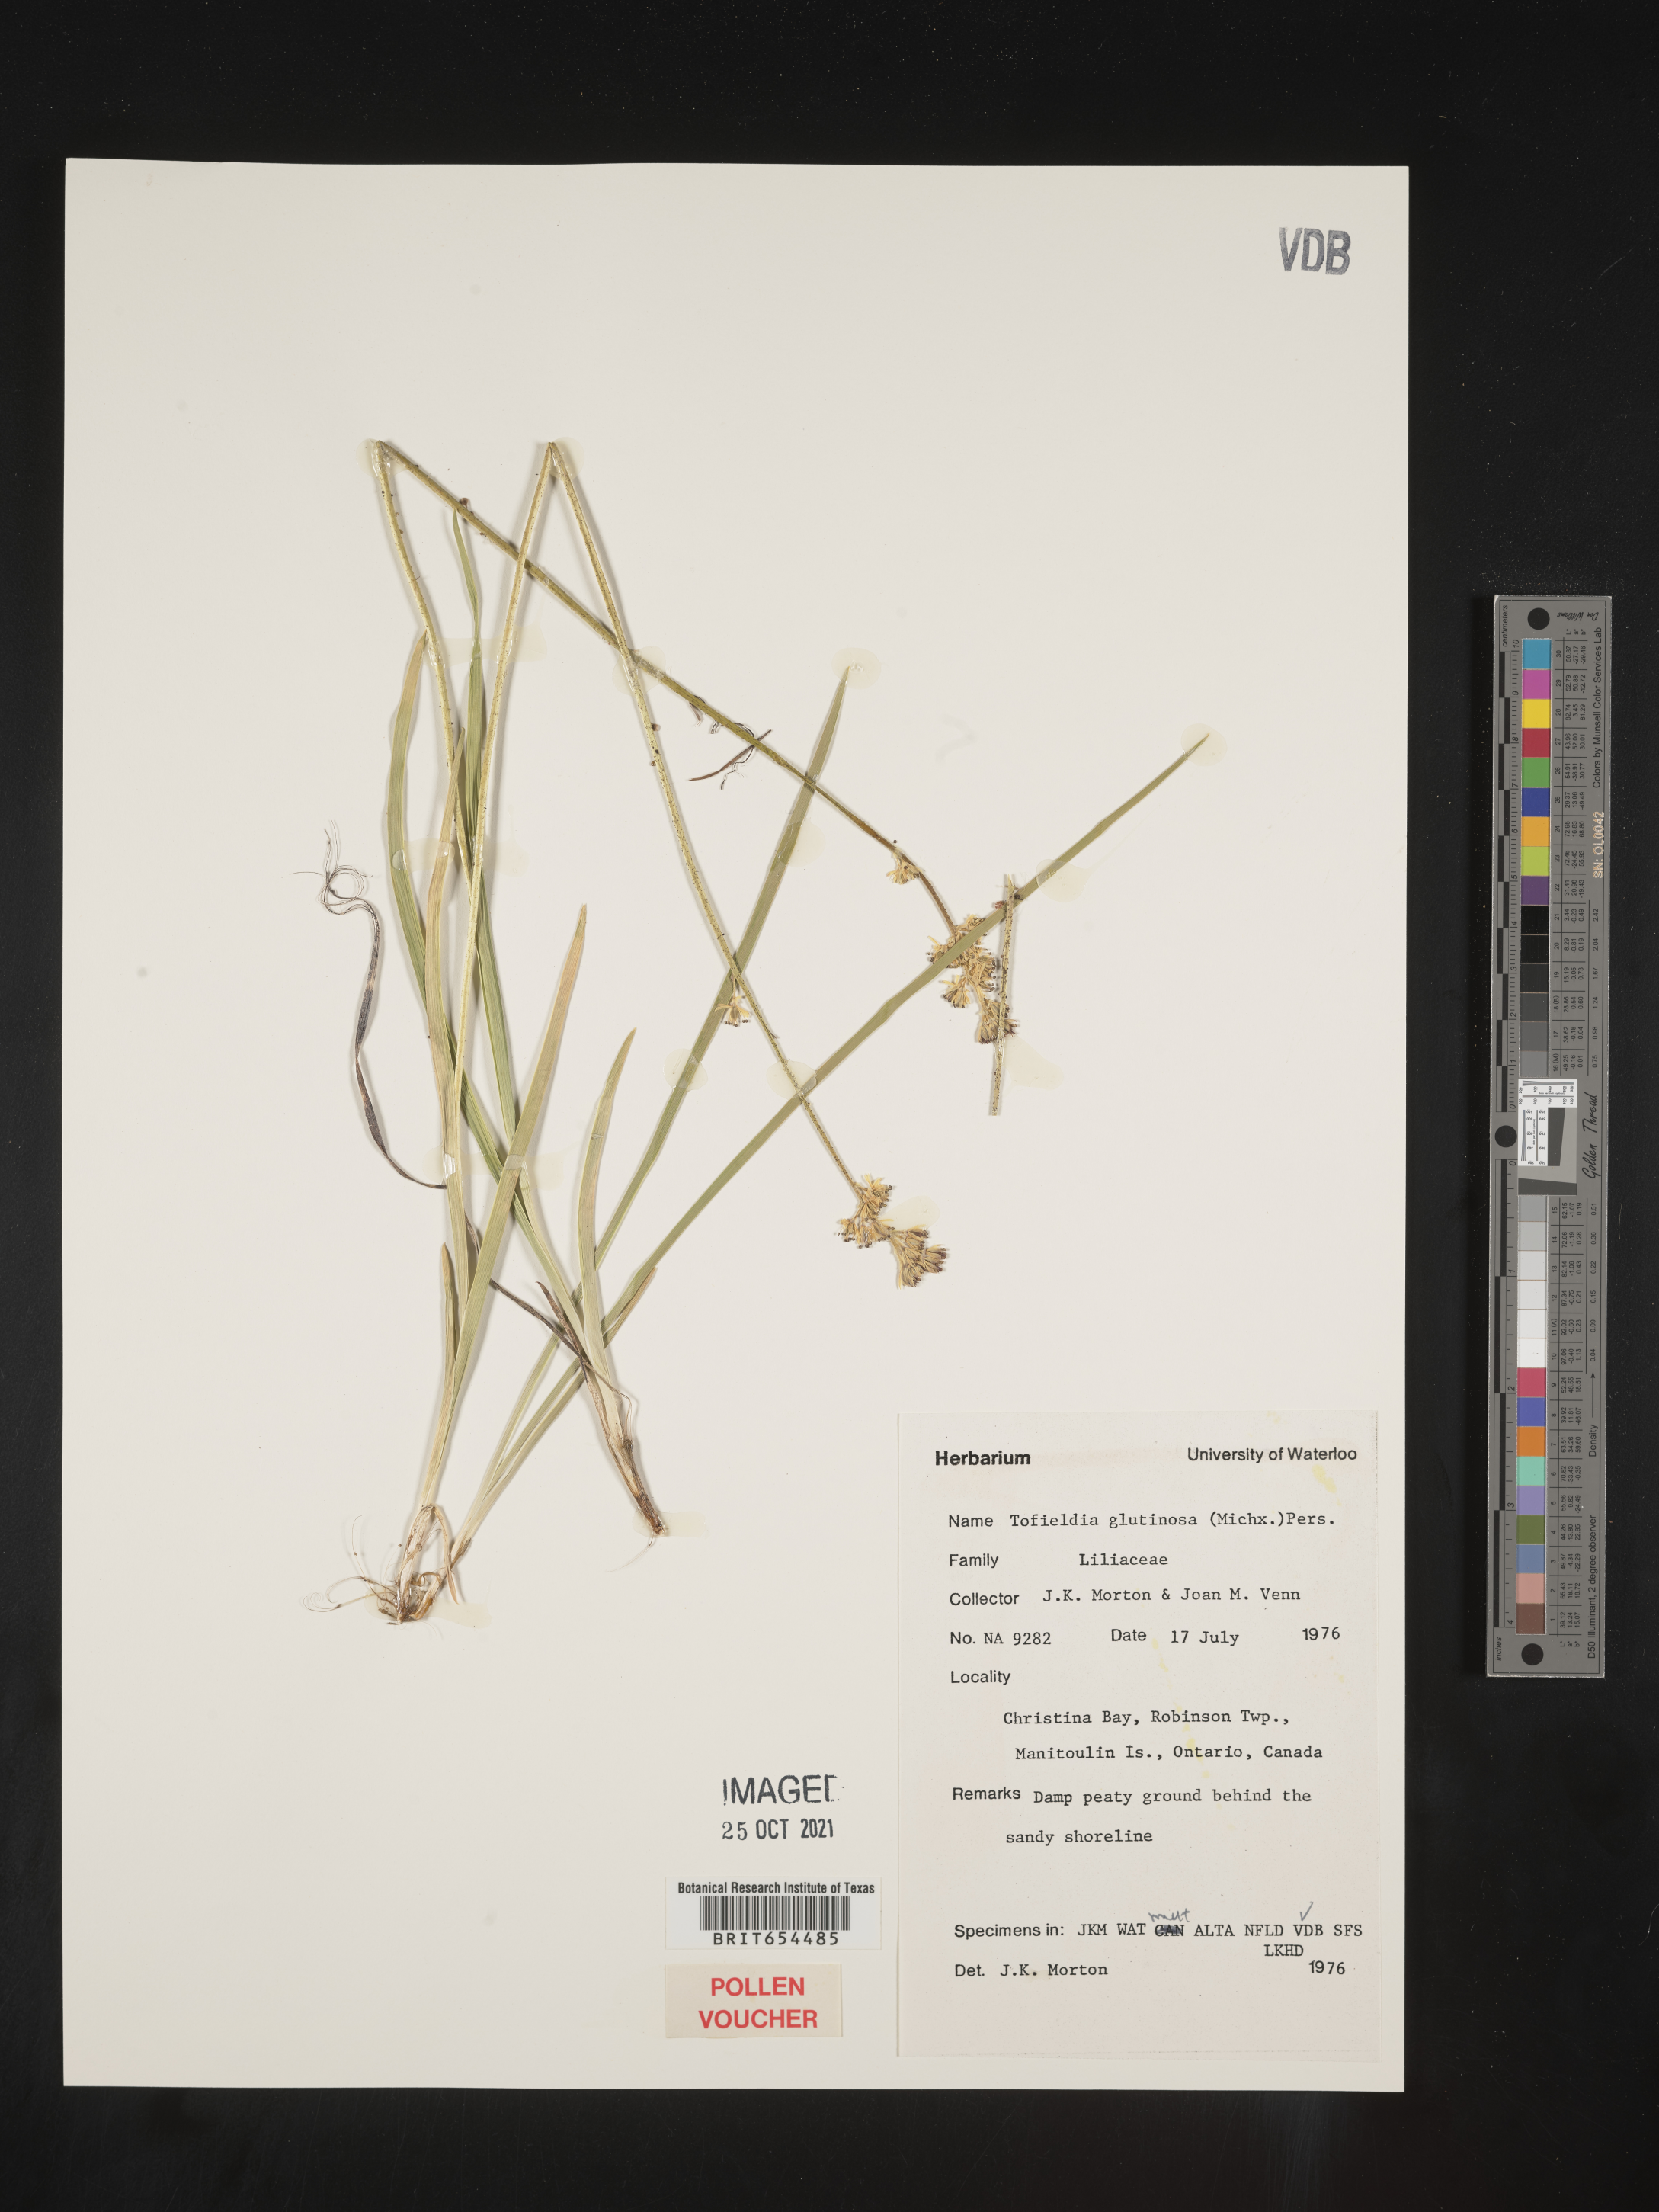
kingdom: Plantae
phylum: Tracheophyta
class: Liliopsida
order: Alismatales
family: Tofieldiaceae
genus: Tofieldia
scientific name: Tofieldia
